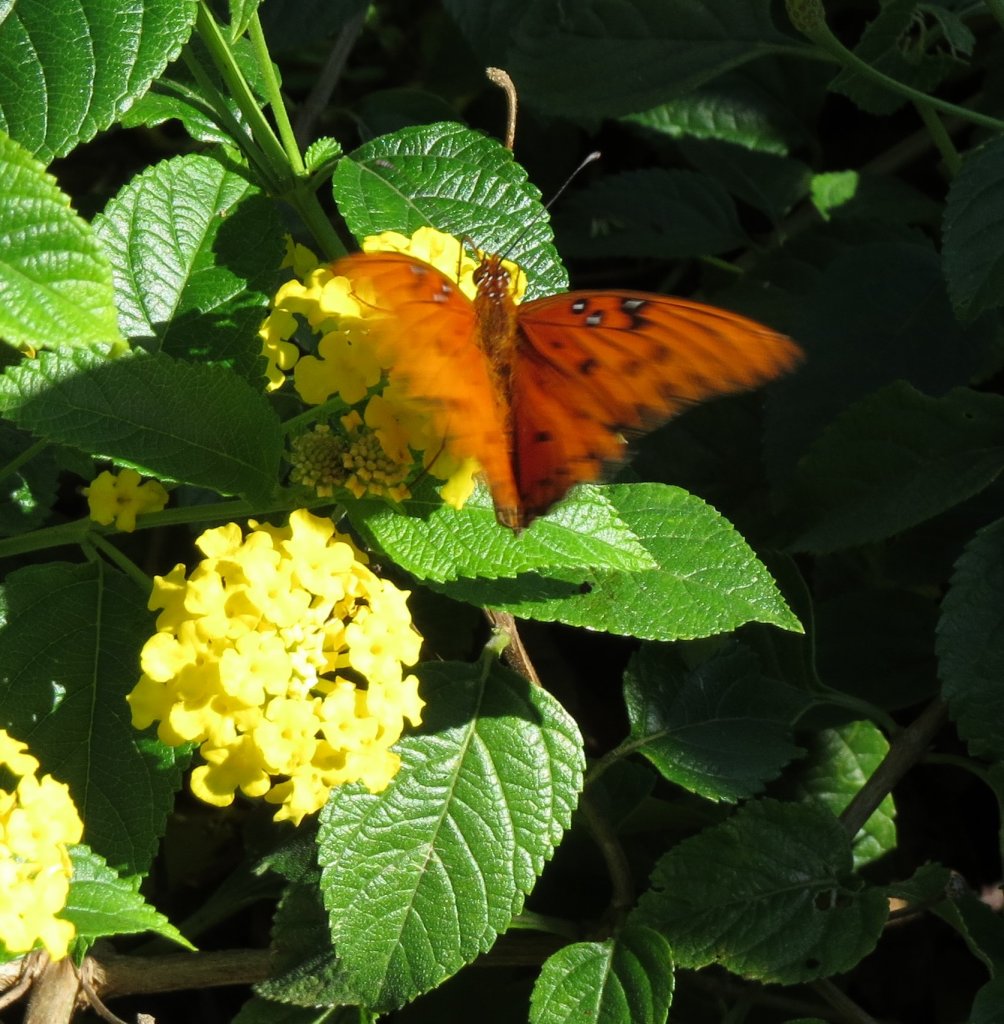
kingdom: Animalia
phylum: Arthropoda
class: Insecta
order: Lepidoptera
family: Nymphalidae
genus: Dione
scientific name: Dione vanillae
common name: Gulf Fritillary
